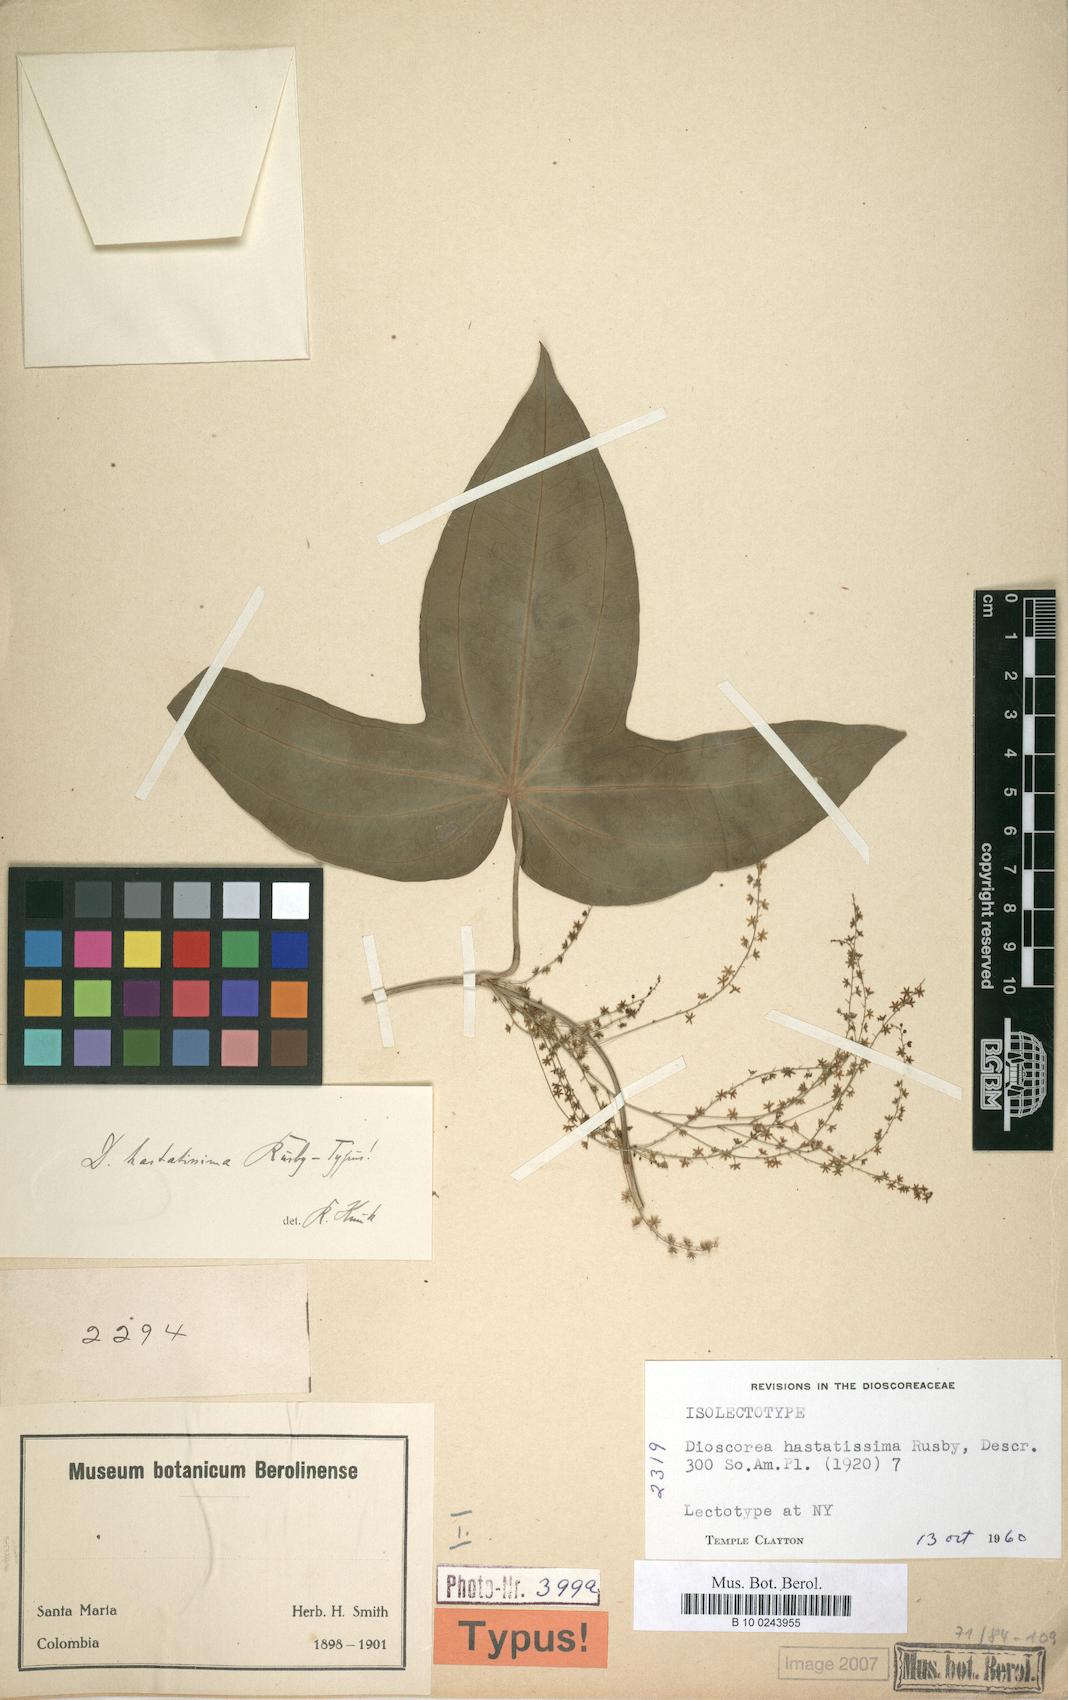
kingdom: Plantae
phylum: Tracheophyta
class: Liliopsida
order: Dioscoreales
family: Dioscoreaceae
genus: Dioscorea
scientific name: Dioscorea hastatissima
